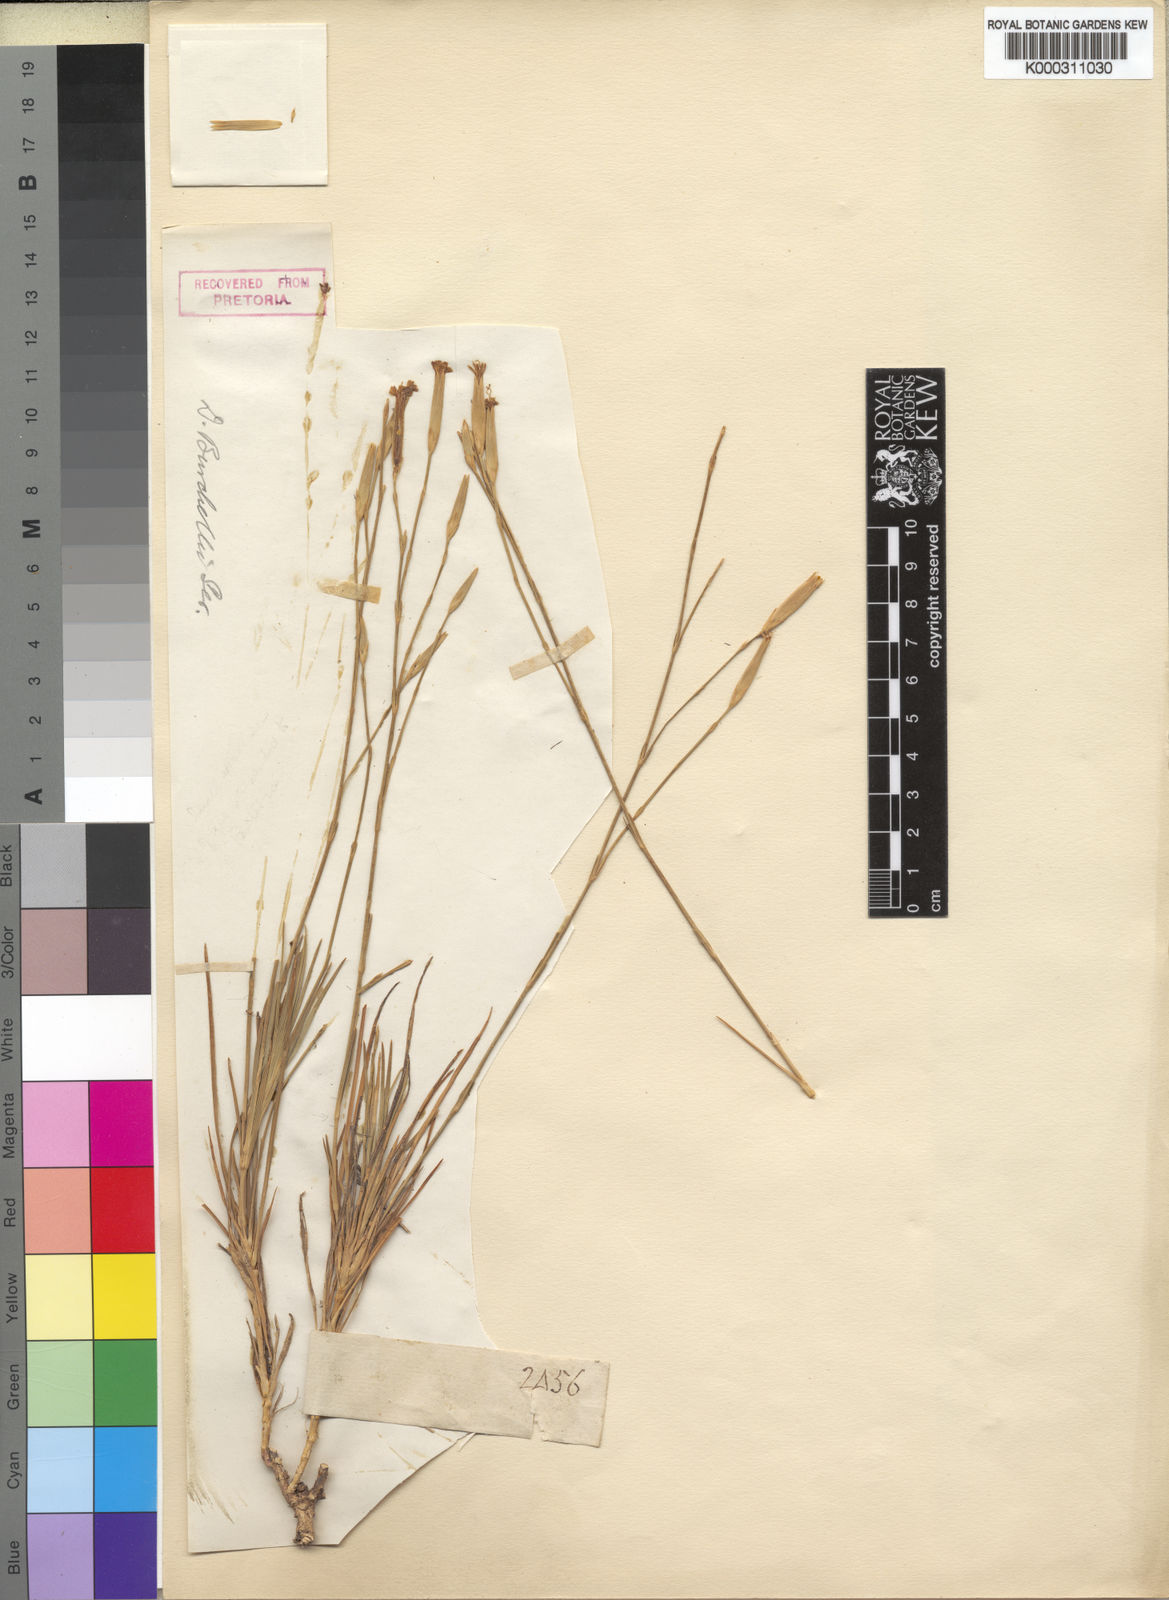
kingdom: Plantae
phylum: Tracheophyta
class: Magnoliopsida
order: Caryophyllales
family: Caryophyllaceae
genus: Dianthus
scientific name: Dianthus burchellii
